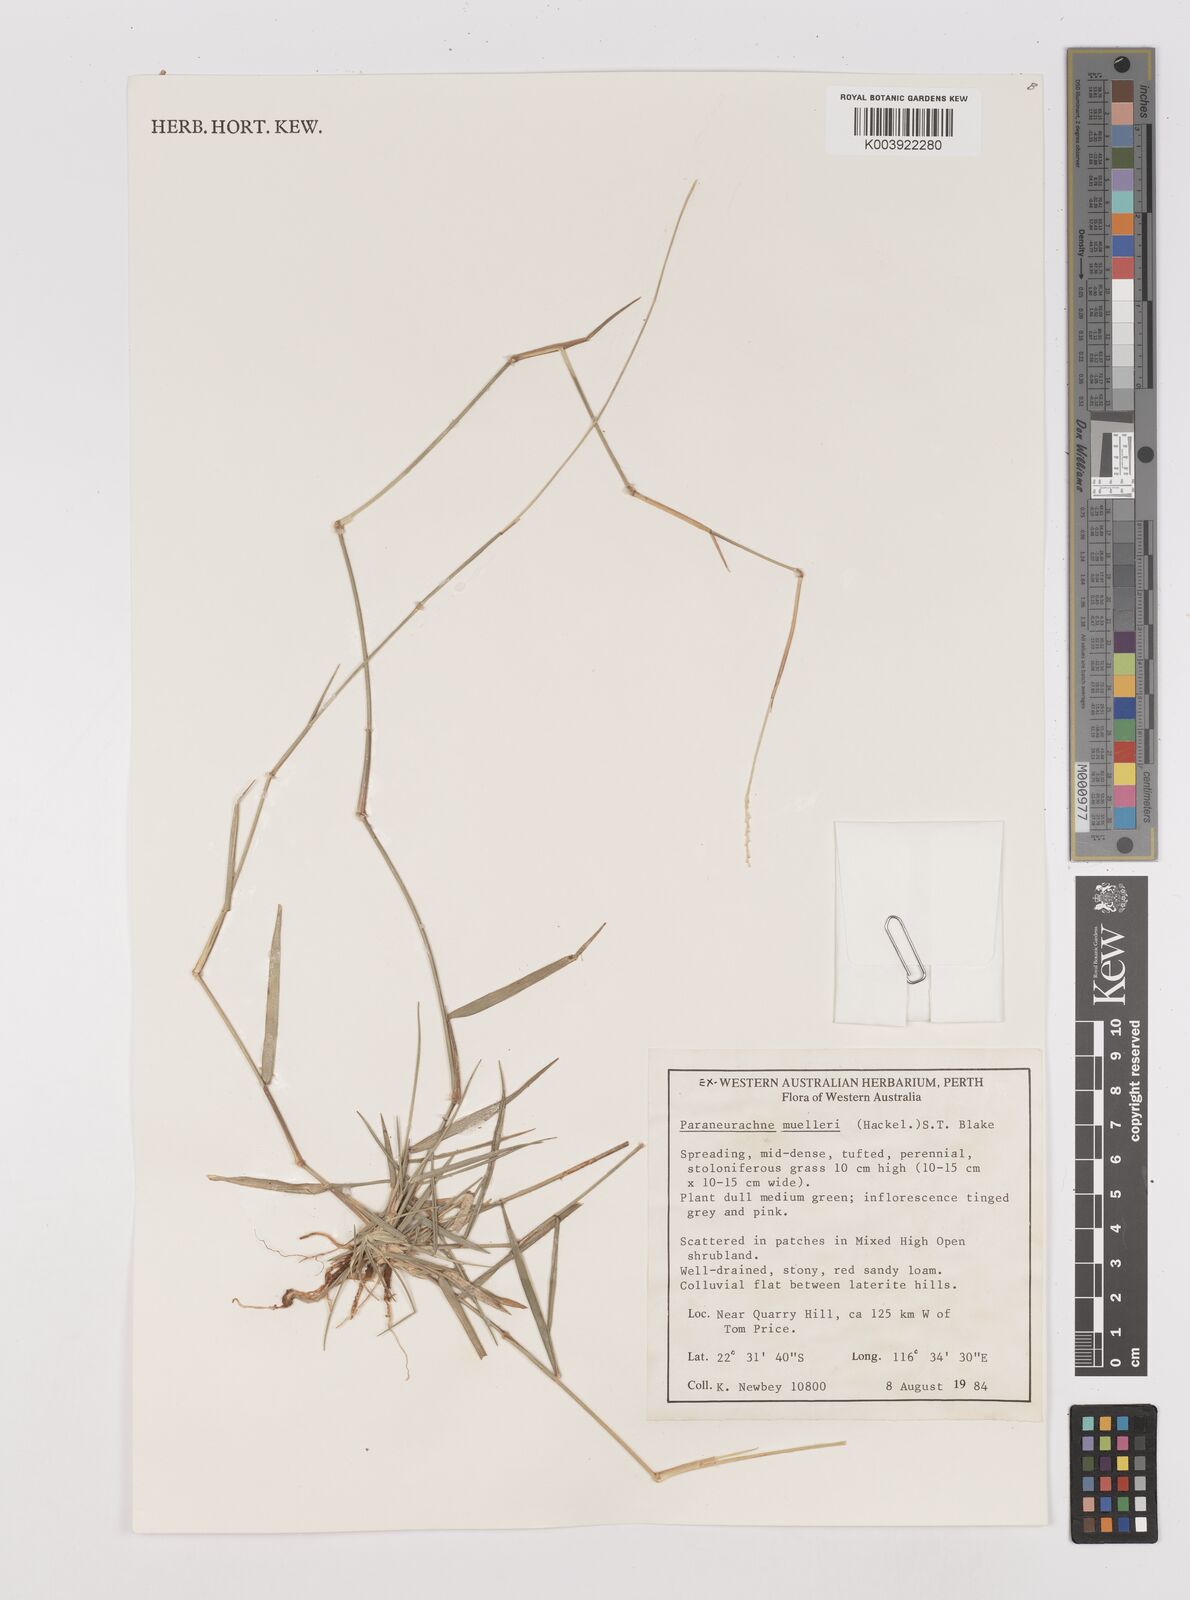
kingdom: Plantae
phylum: Tracheophyta
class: Liliopsida
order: Poales
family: Poaceae
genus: Neurachne
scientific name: Neurachne muelleri
